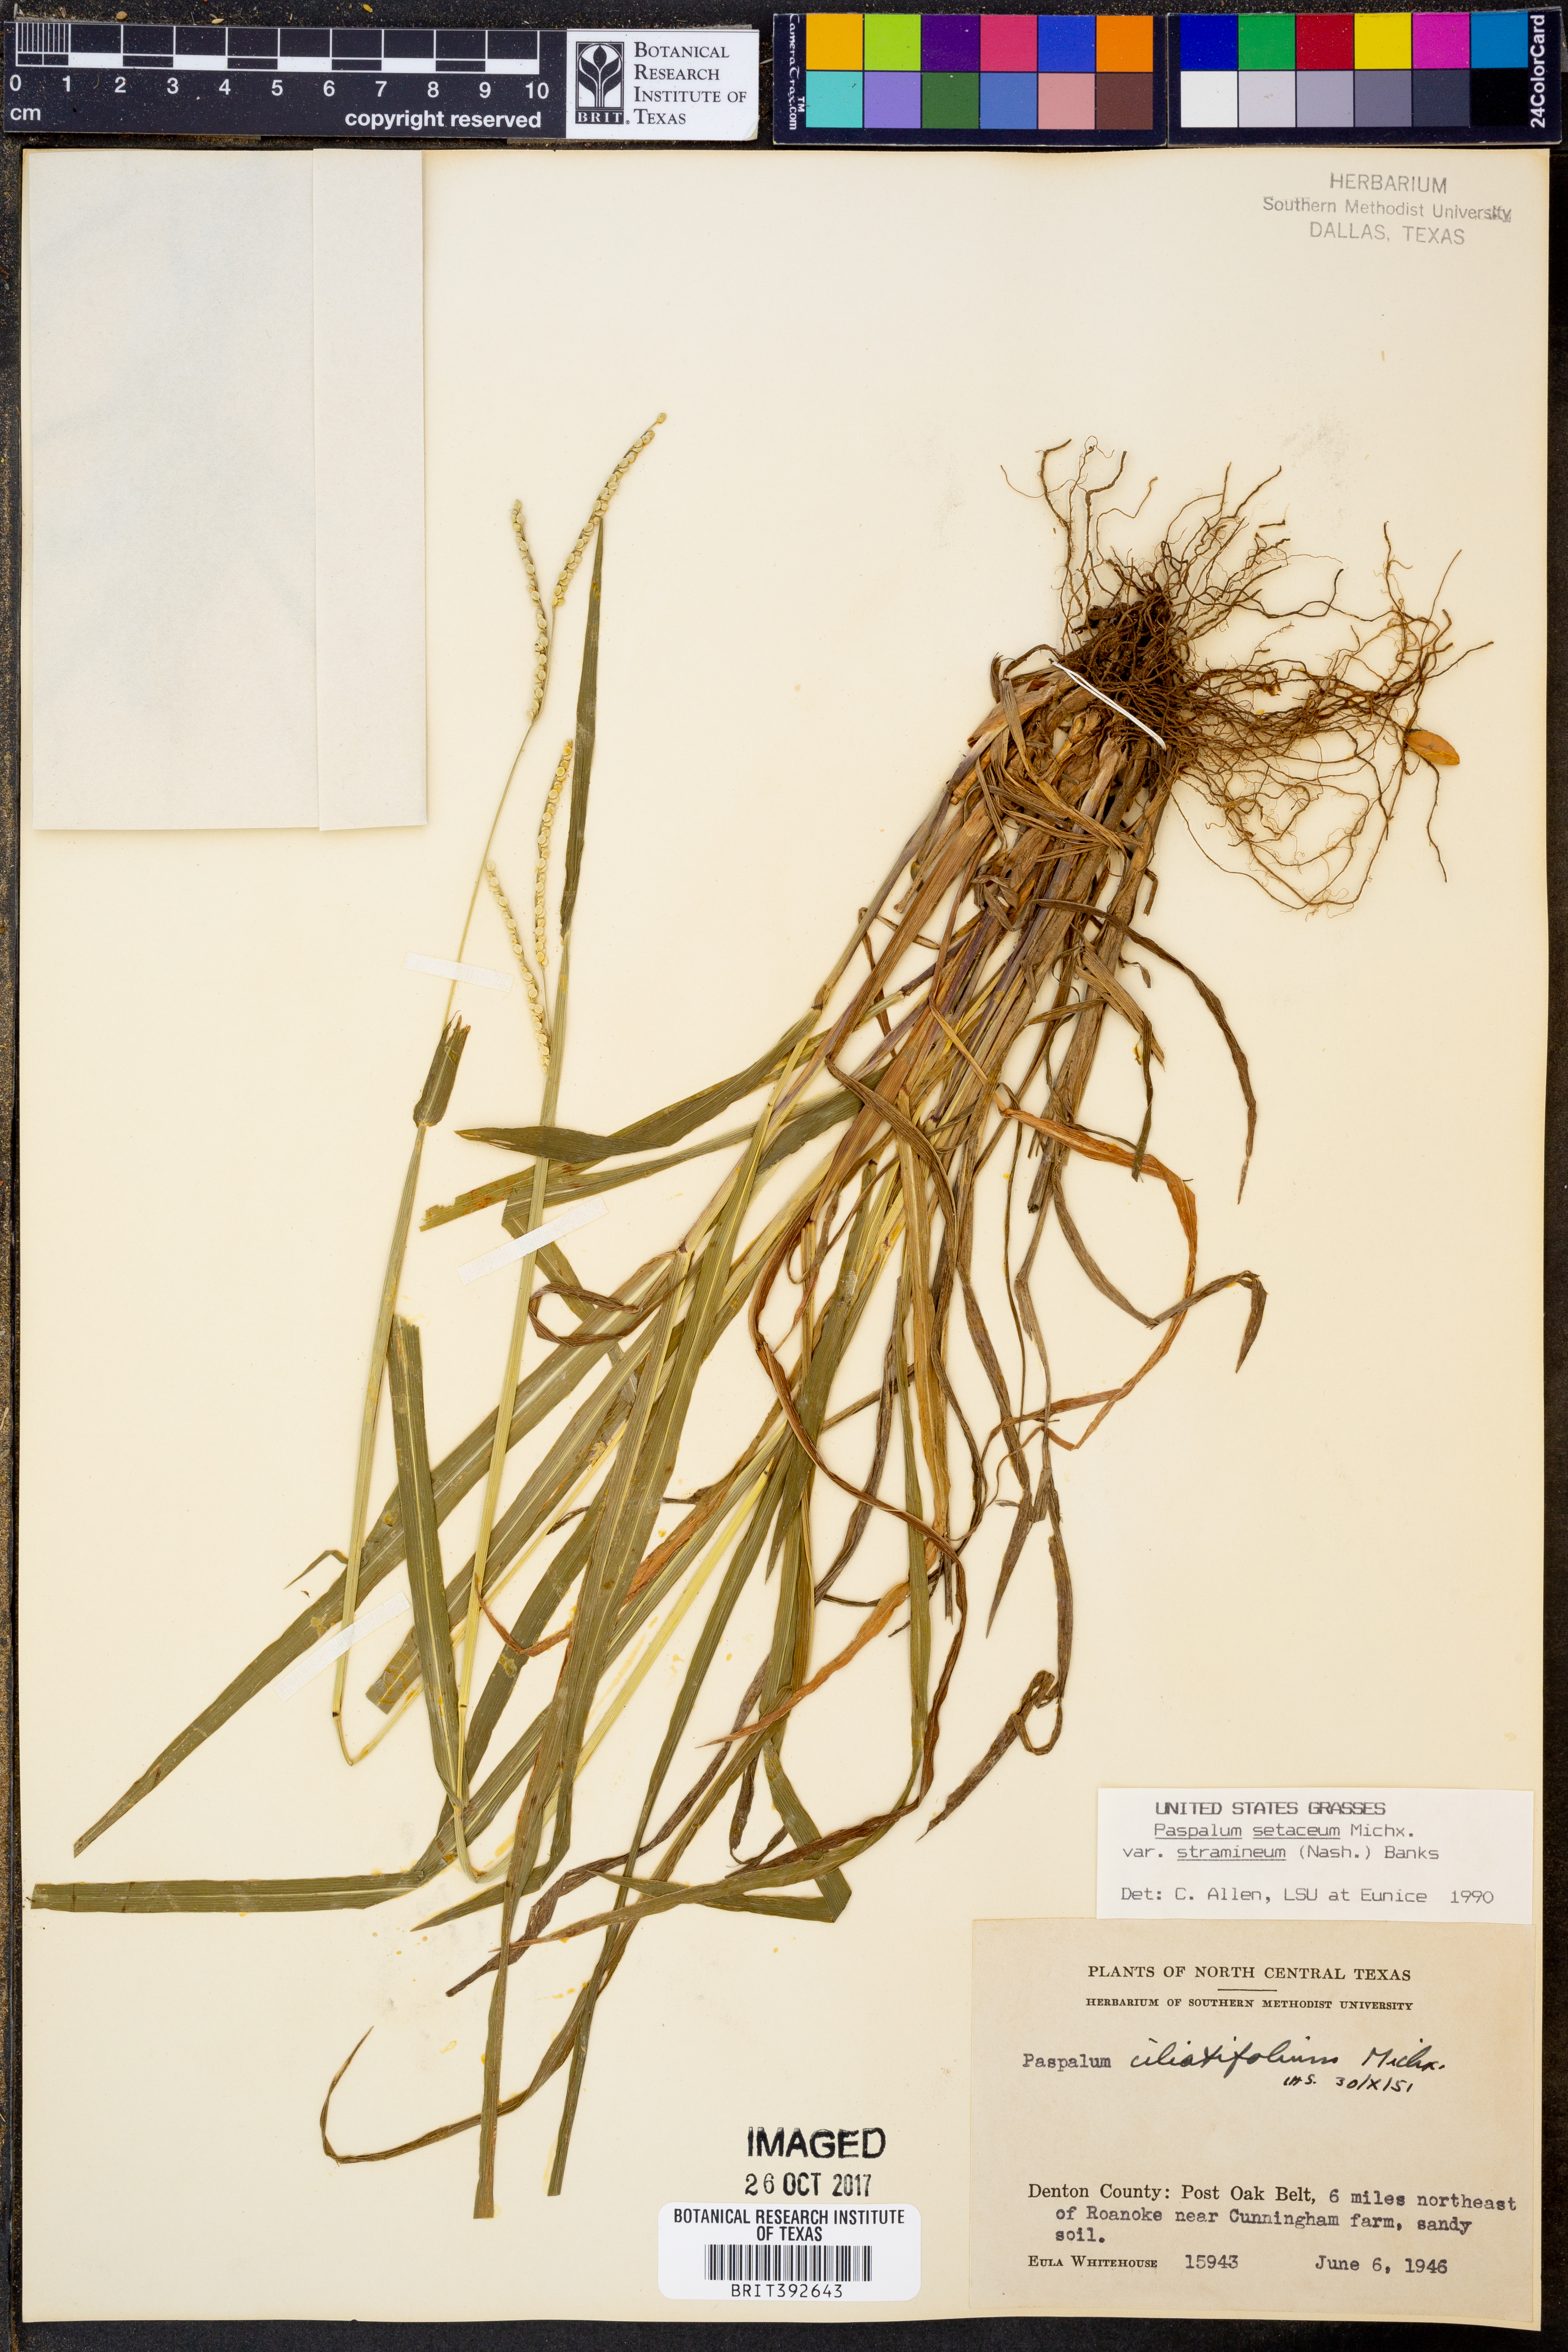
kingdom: Plantae
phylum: Tracheophyta
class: Liliopsida
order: Poales
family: Poaceae
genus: Paspalum
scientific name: Paspalum setaceum
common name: Slender paspalum
